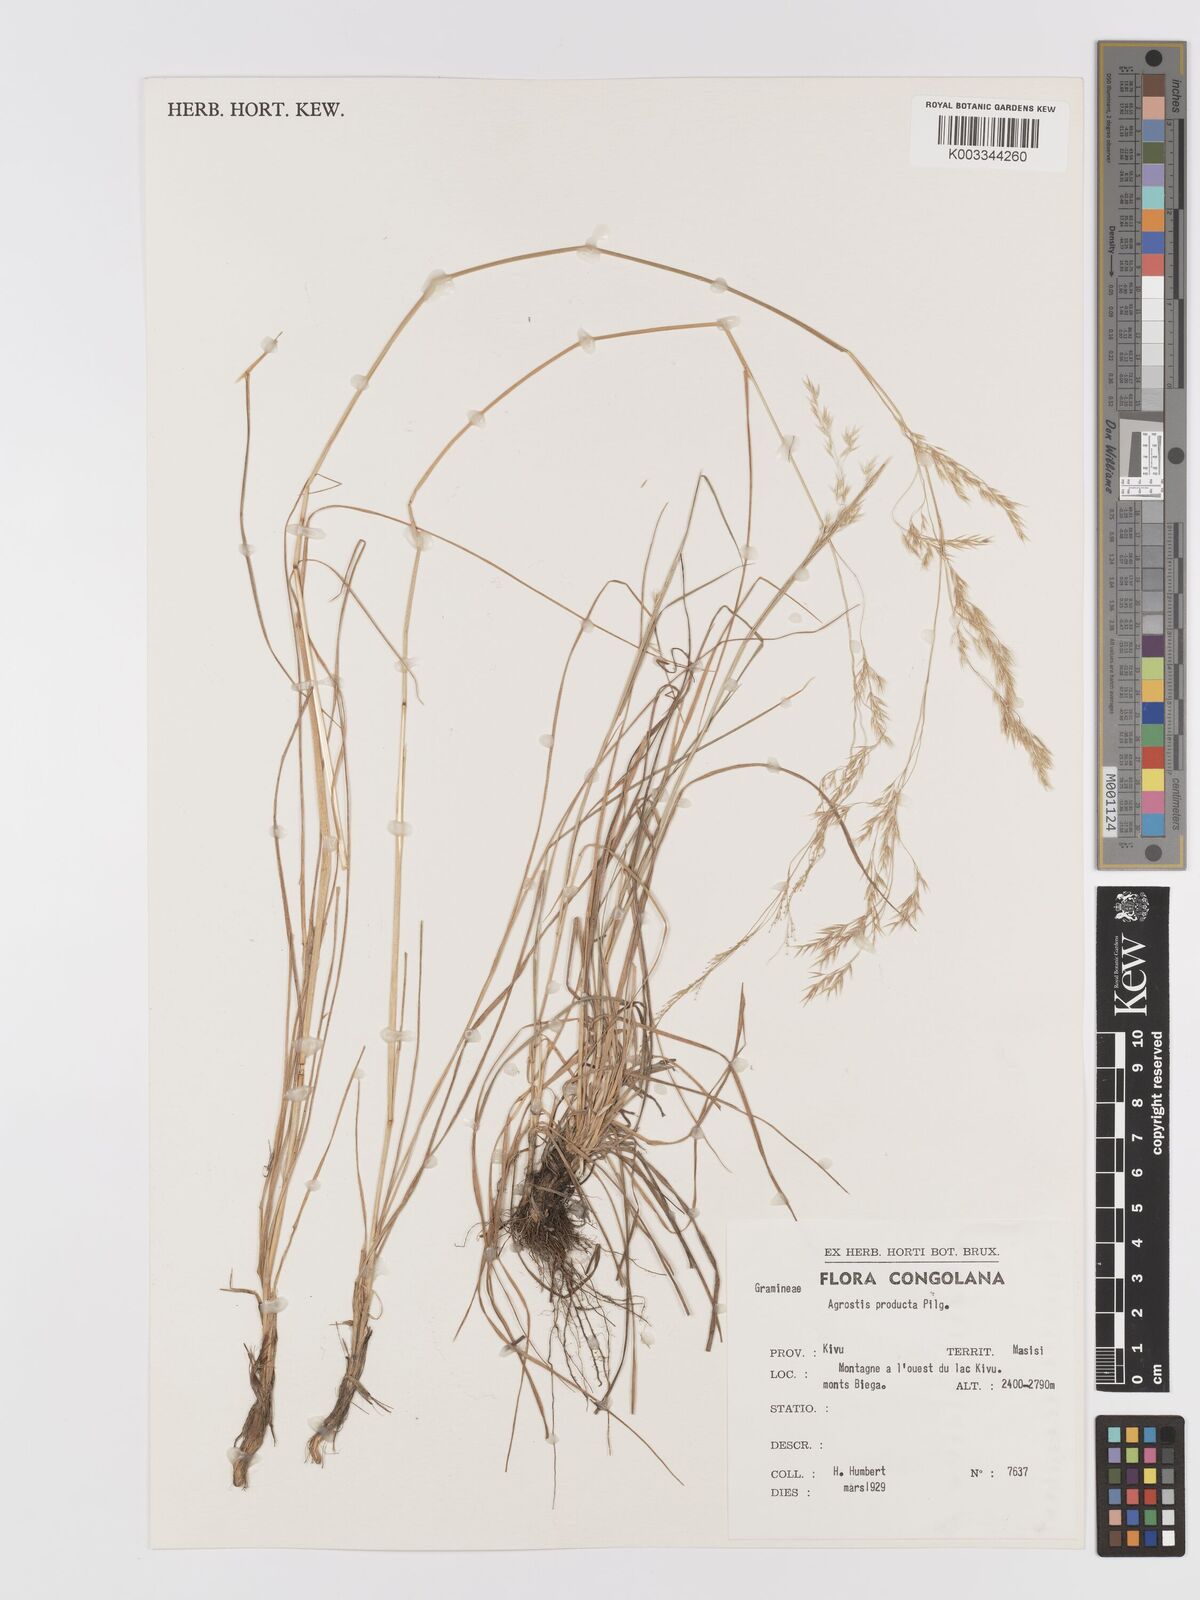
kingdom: Plantae
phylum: Tracheophyta
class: Liliopsida
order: Poales
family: Poaceae
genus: Agrostis
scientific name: Agrostis producta
